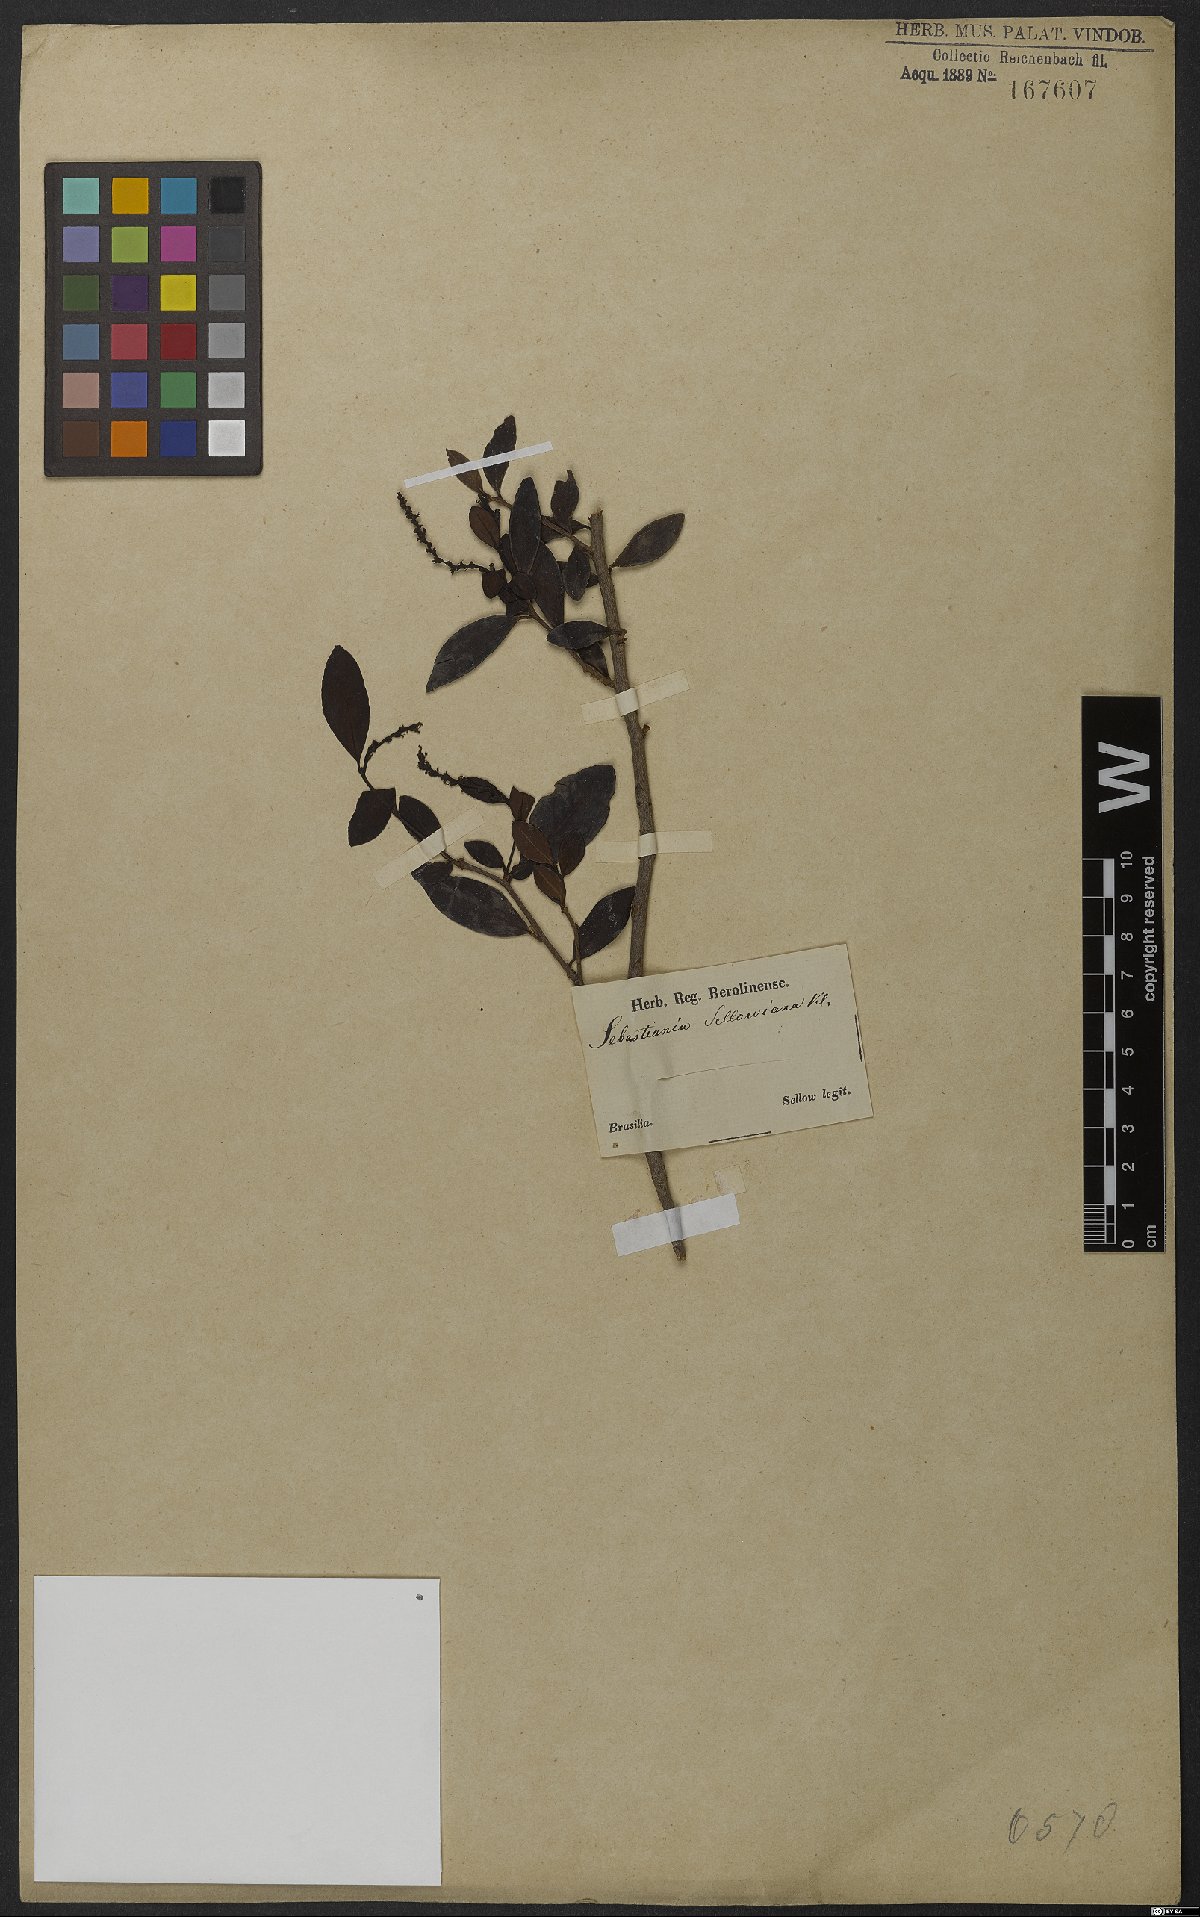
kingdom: Plantae
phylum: Tracheophyta
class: Magnoliopsida
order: Malpighiales
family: Euphorbiaceae
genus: Sebastiania
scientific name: Sebastiania ramosissima
